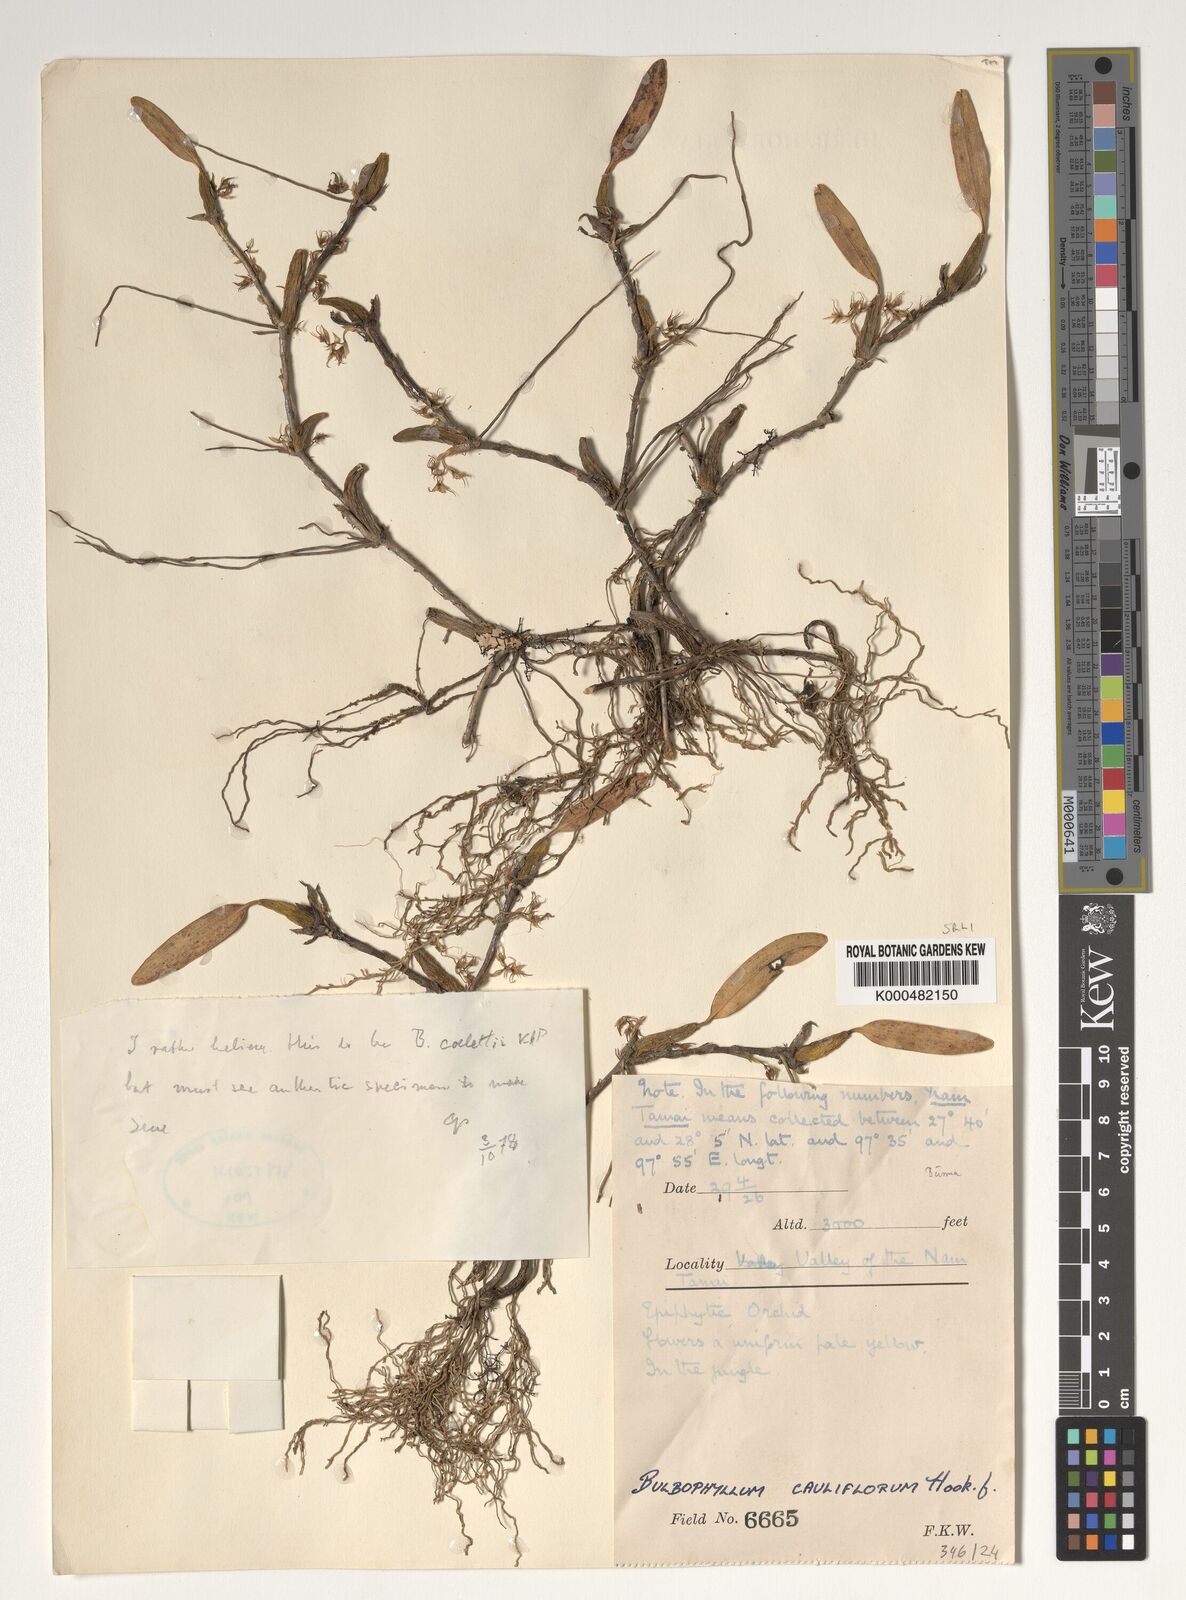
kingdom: Plantae
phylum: Tracheophyta
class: Liliopsida
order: Asparagales
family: Orchidaceae
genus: Bulbophyllum
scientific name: Bulbophyllum cauliflorum
